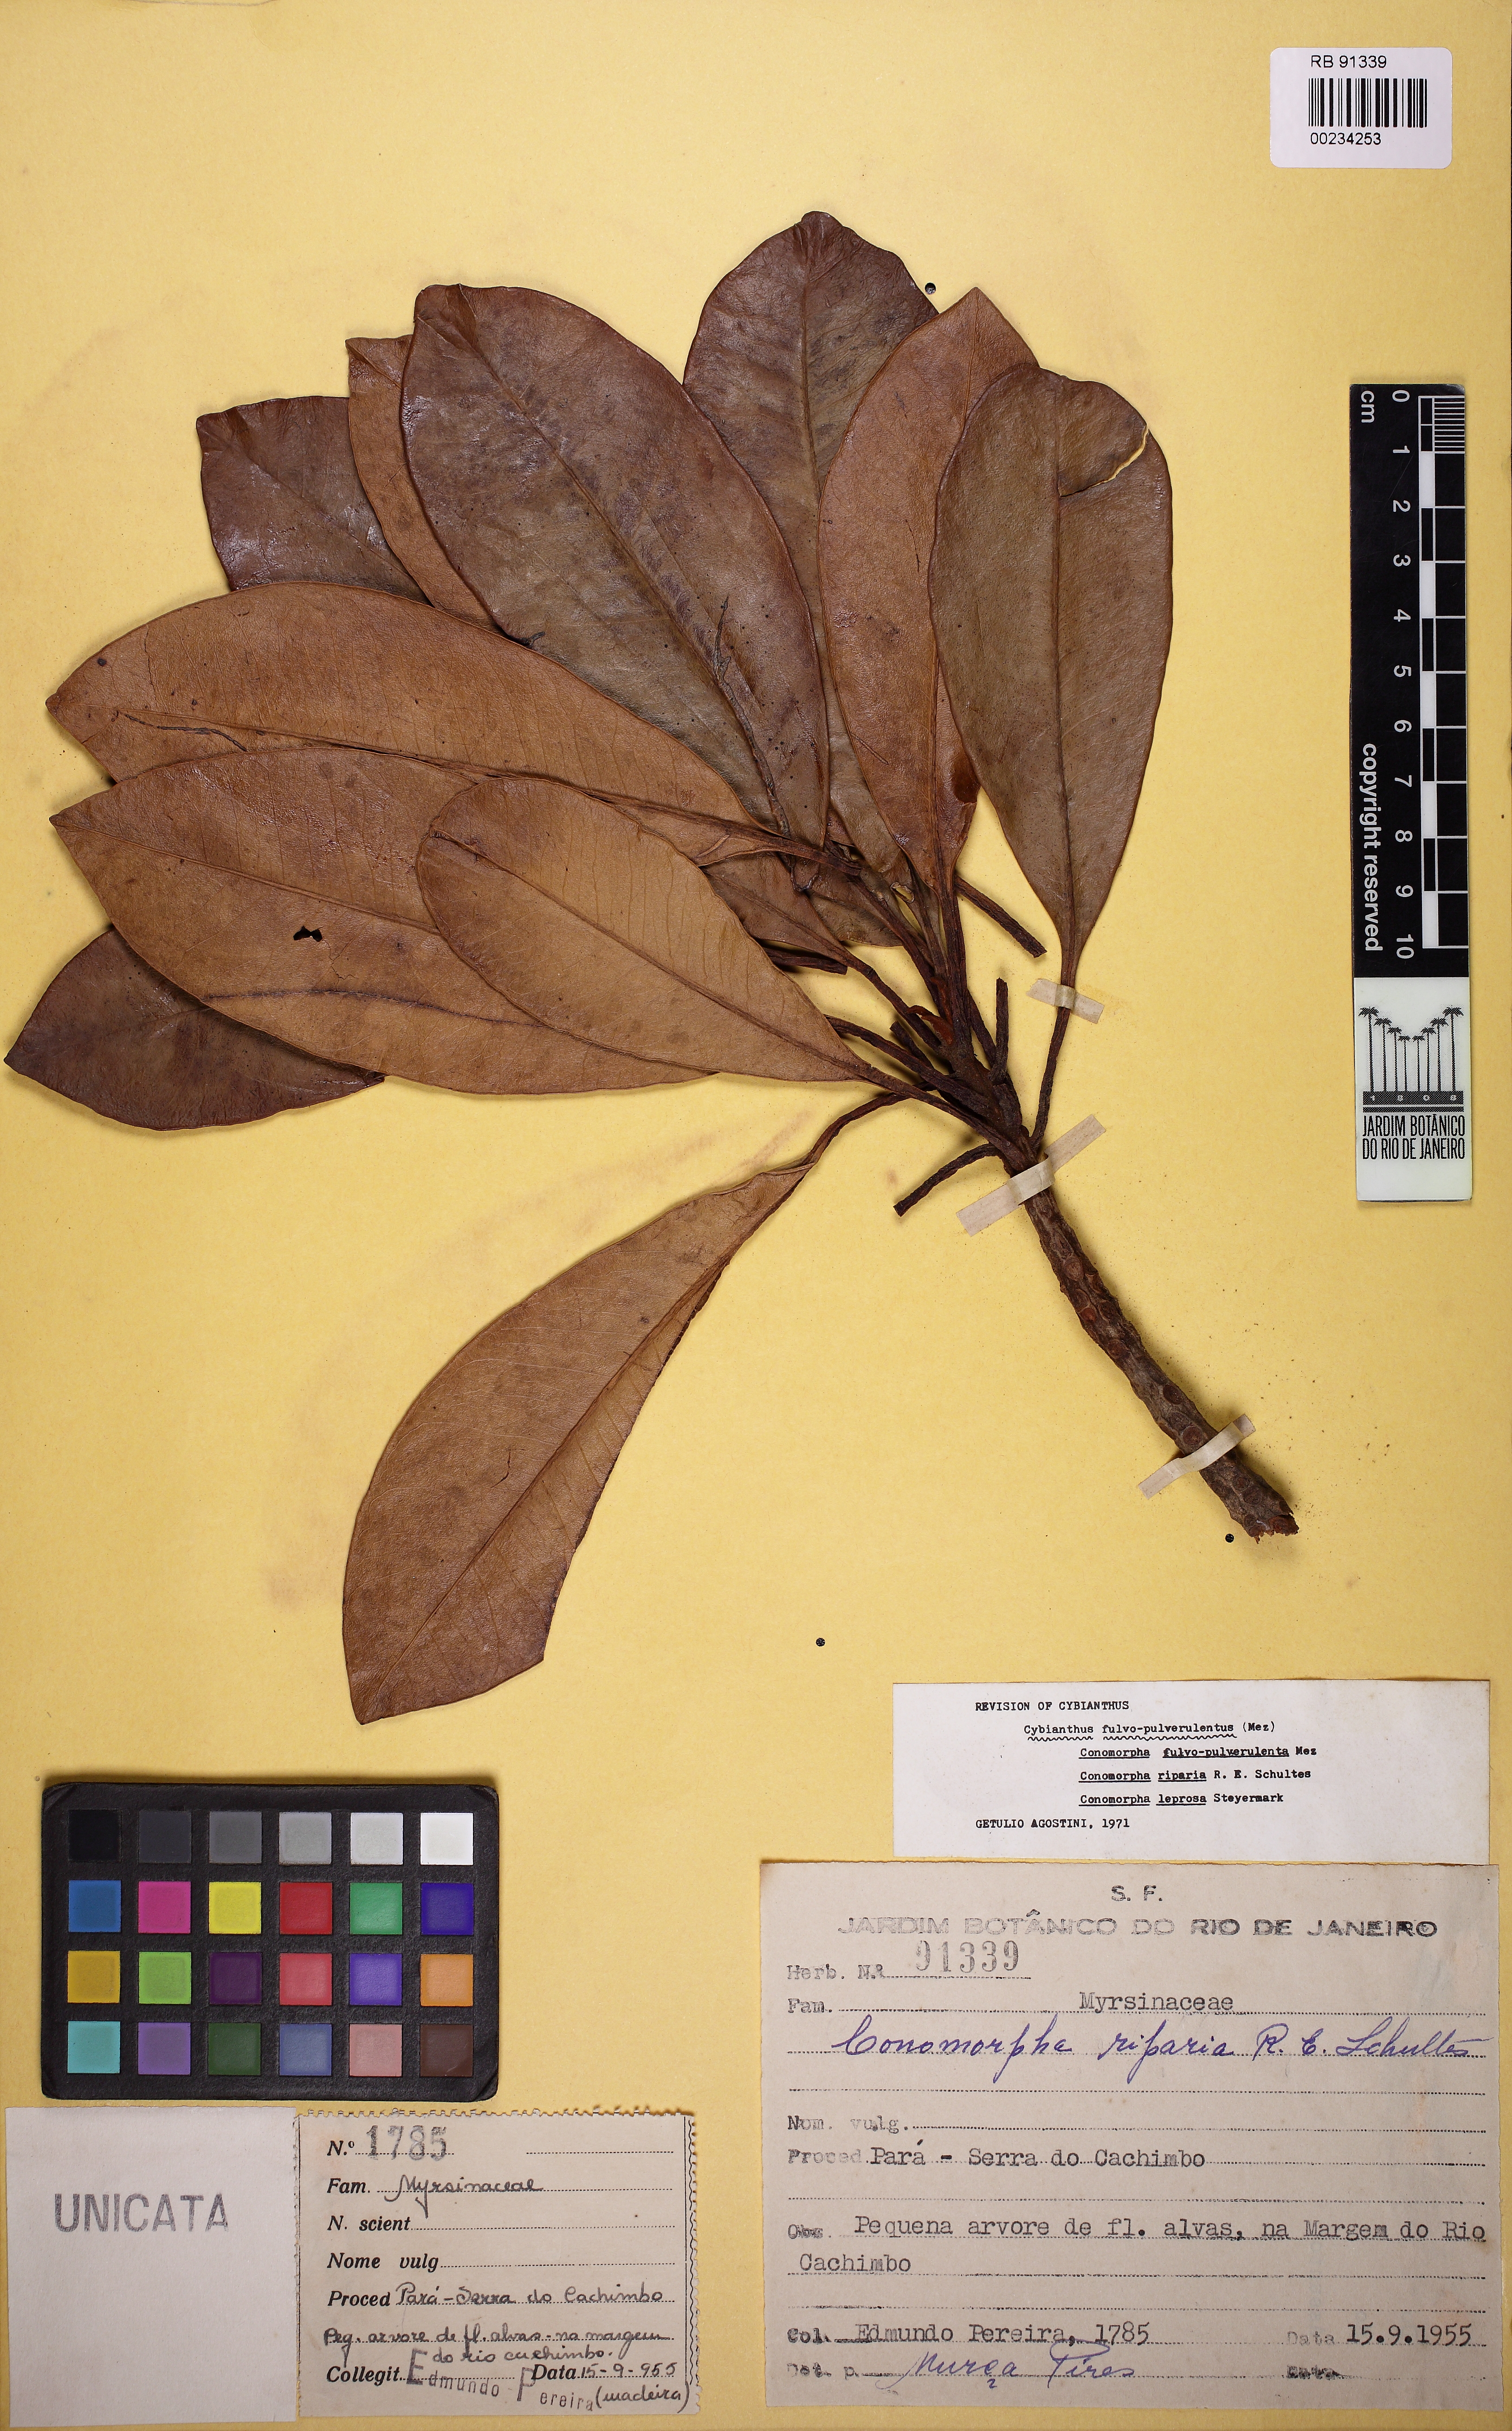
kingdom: Plantae
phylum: Tracheophyta
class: Magnoliopsida
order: Ericales
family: Primulaceae
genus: Cybianthus
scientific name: Cybianthus fulvopulverulentus
